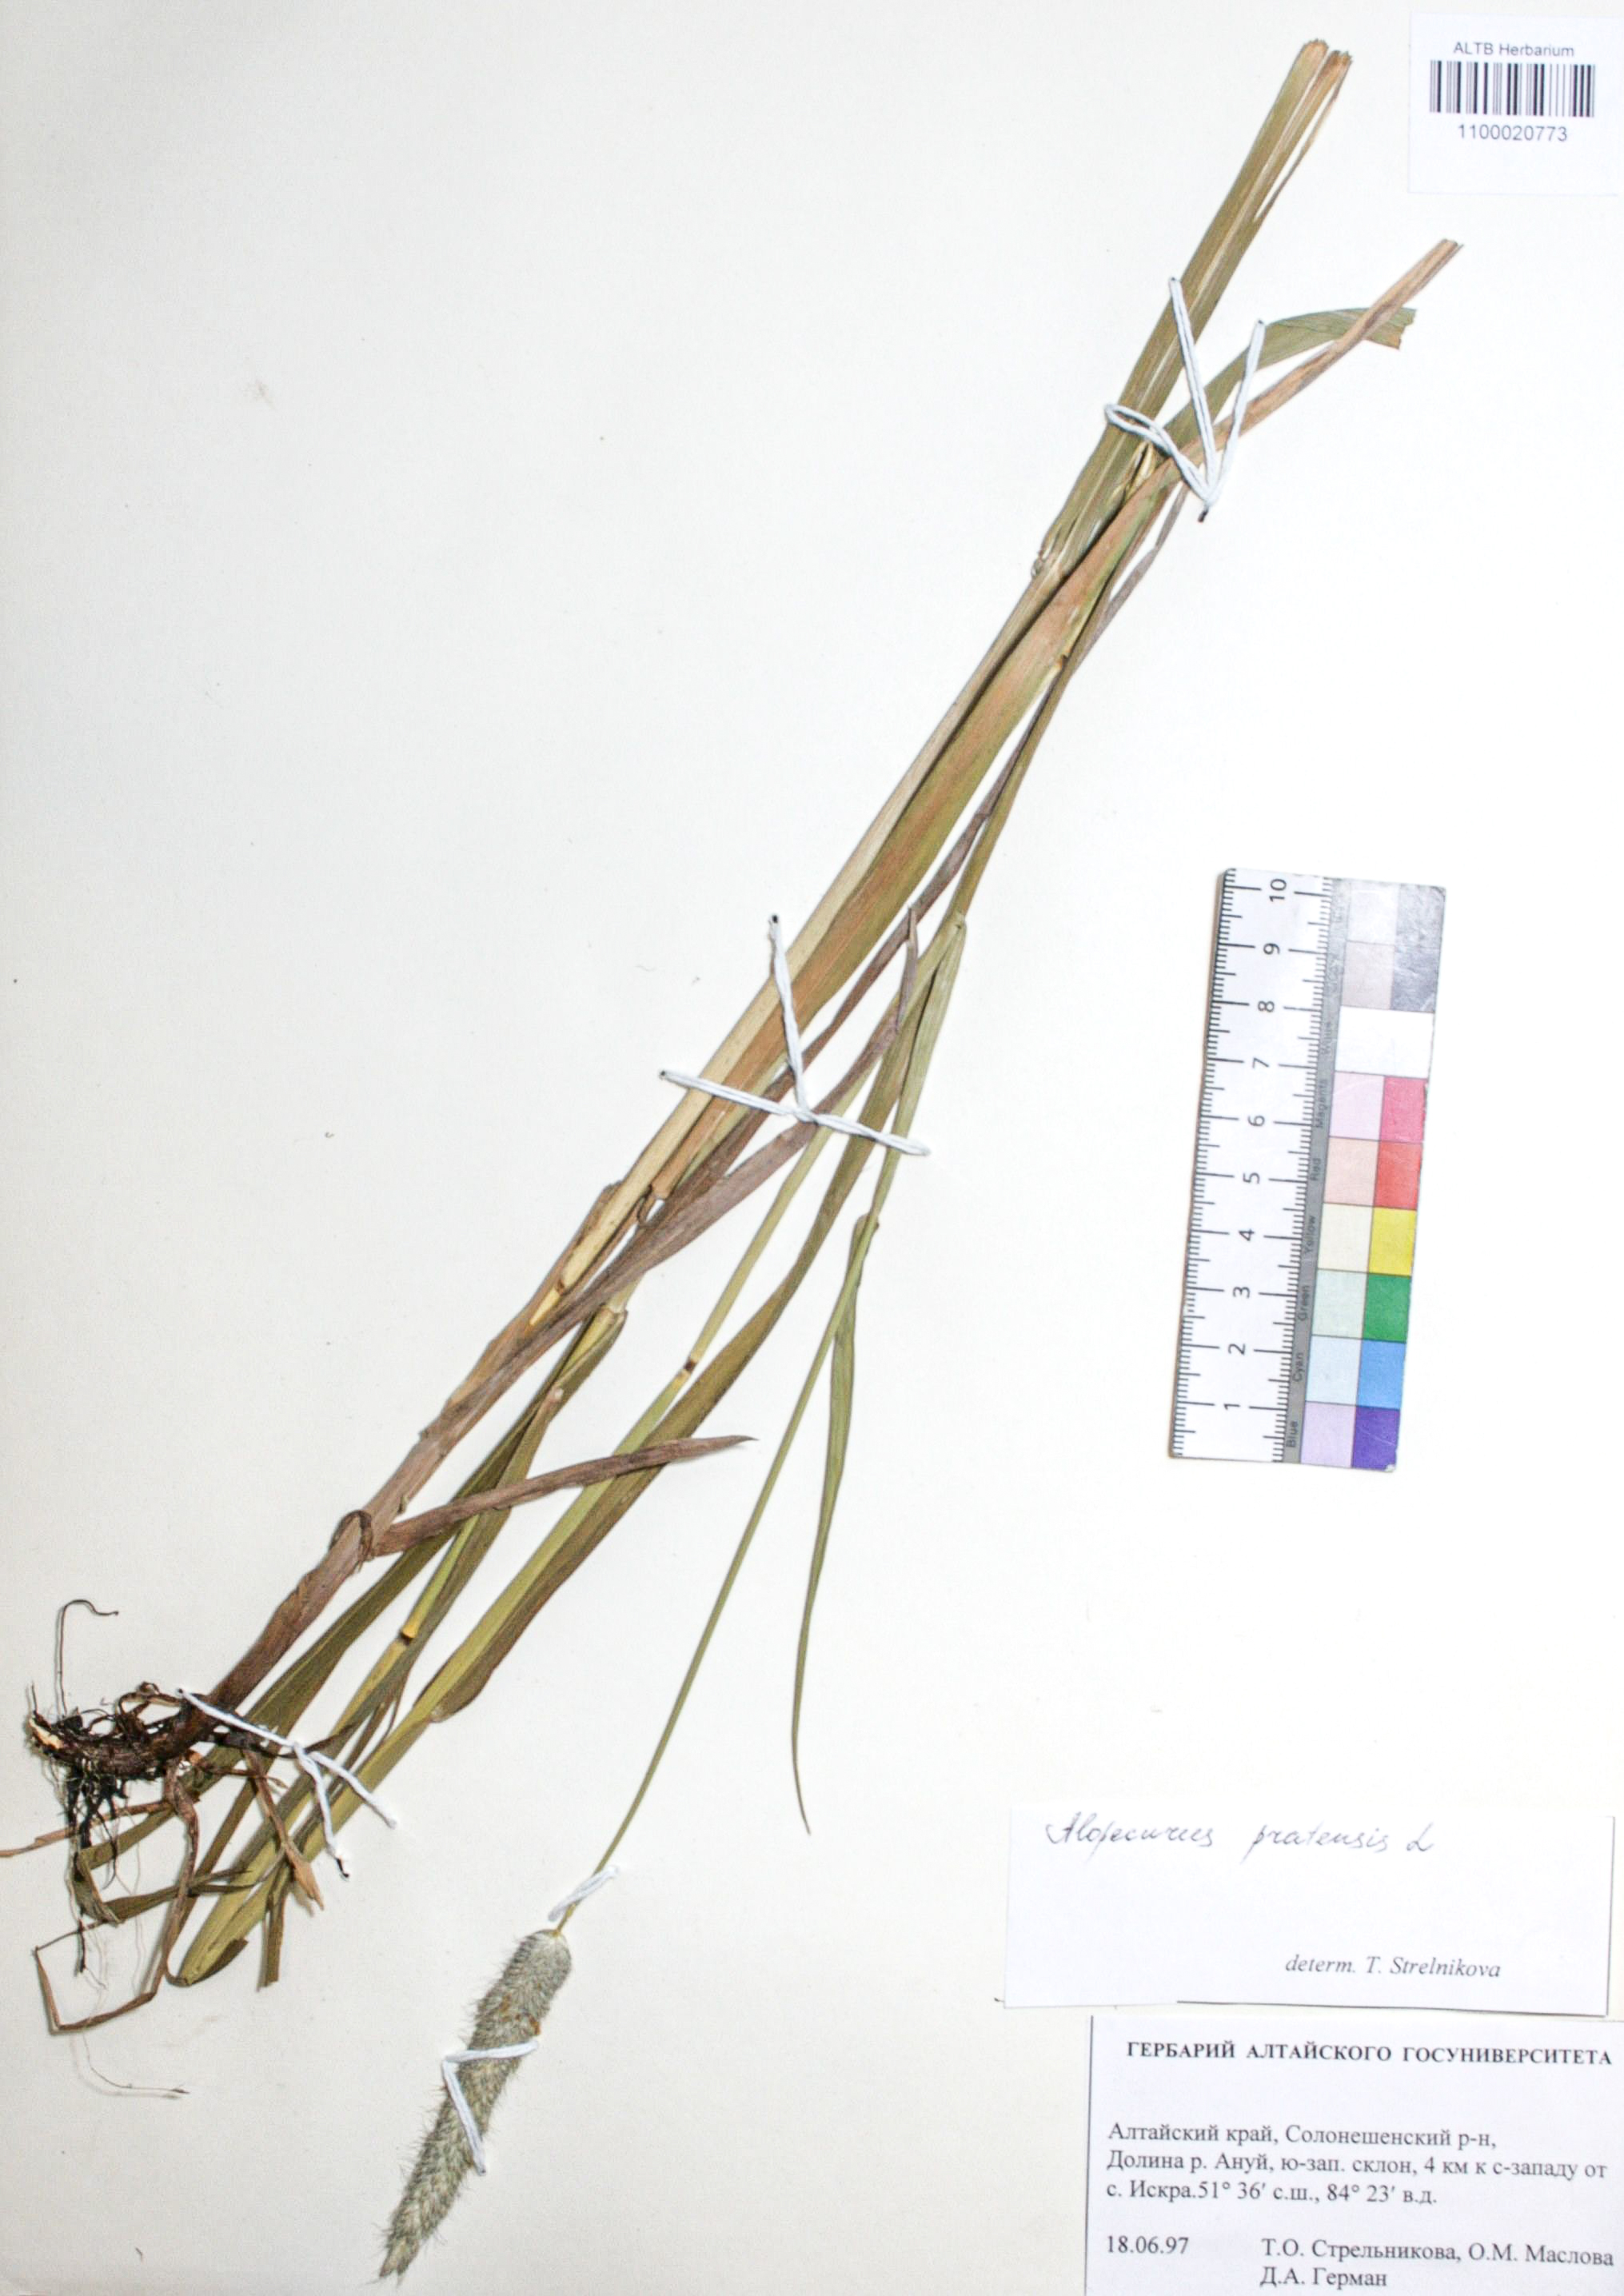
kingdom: Plantae
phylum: Tracheophyta
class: Liliopsida
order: Poales
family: Poaceae
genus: Alopecurus
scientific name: Alopecurus pratensis
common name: Meadow foxtail
